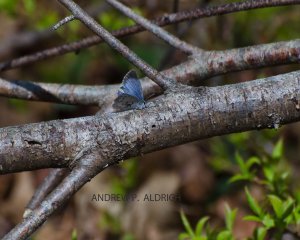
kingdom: Animalia
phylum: Arthropoda
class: Insecta
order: Lepidoptera
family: Lycaenidae
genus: Celastrina
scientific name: Celastrina lucia
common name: Northern Spring Azure
